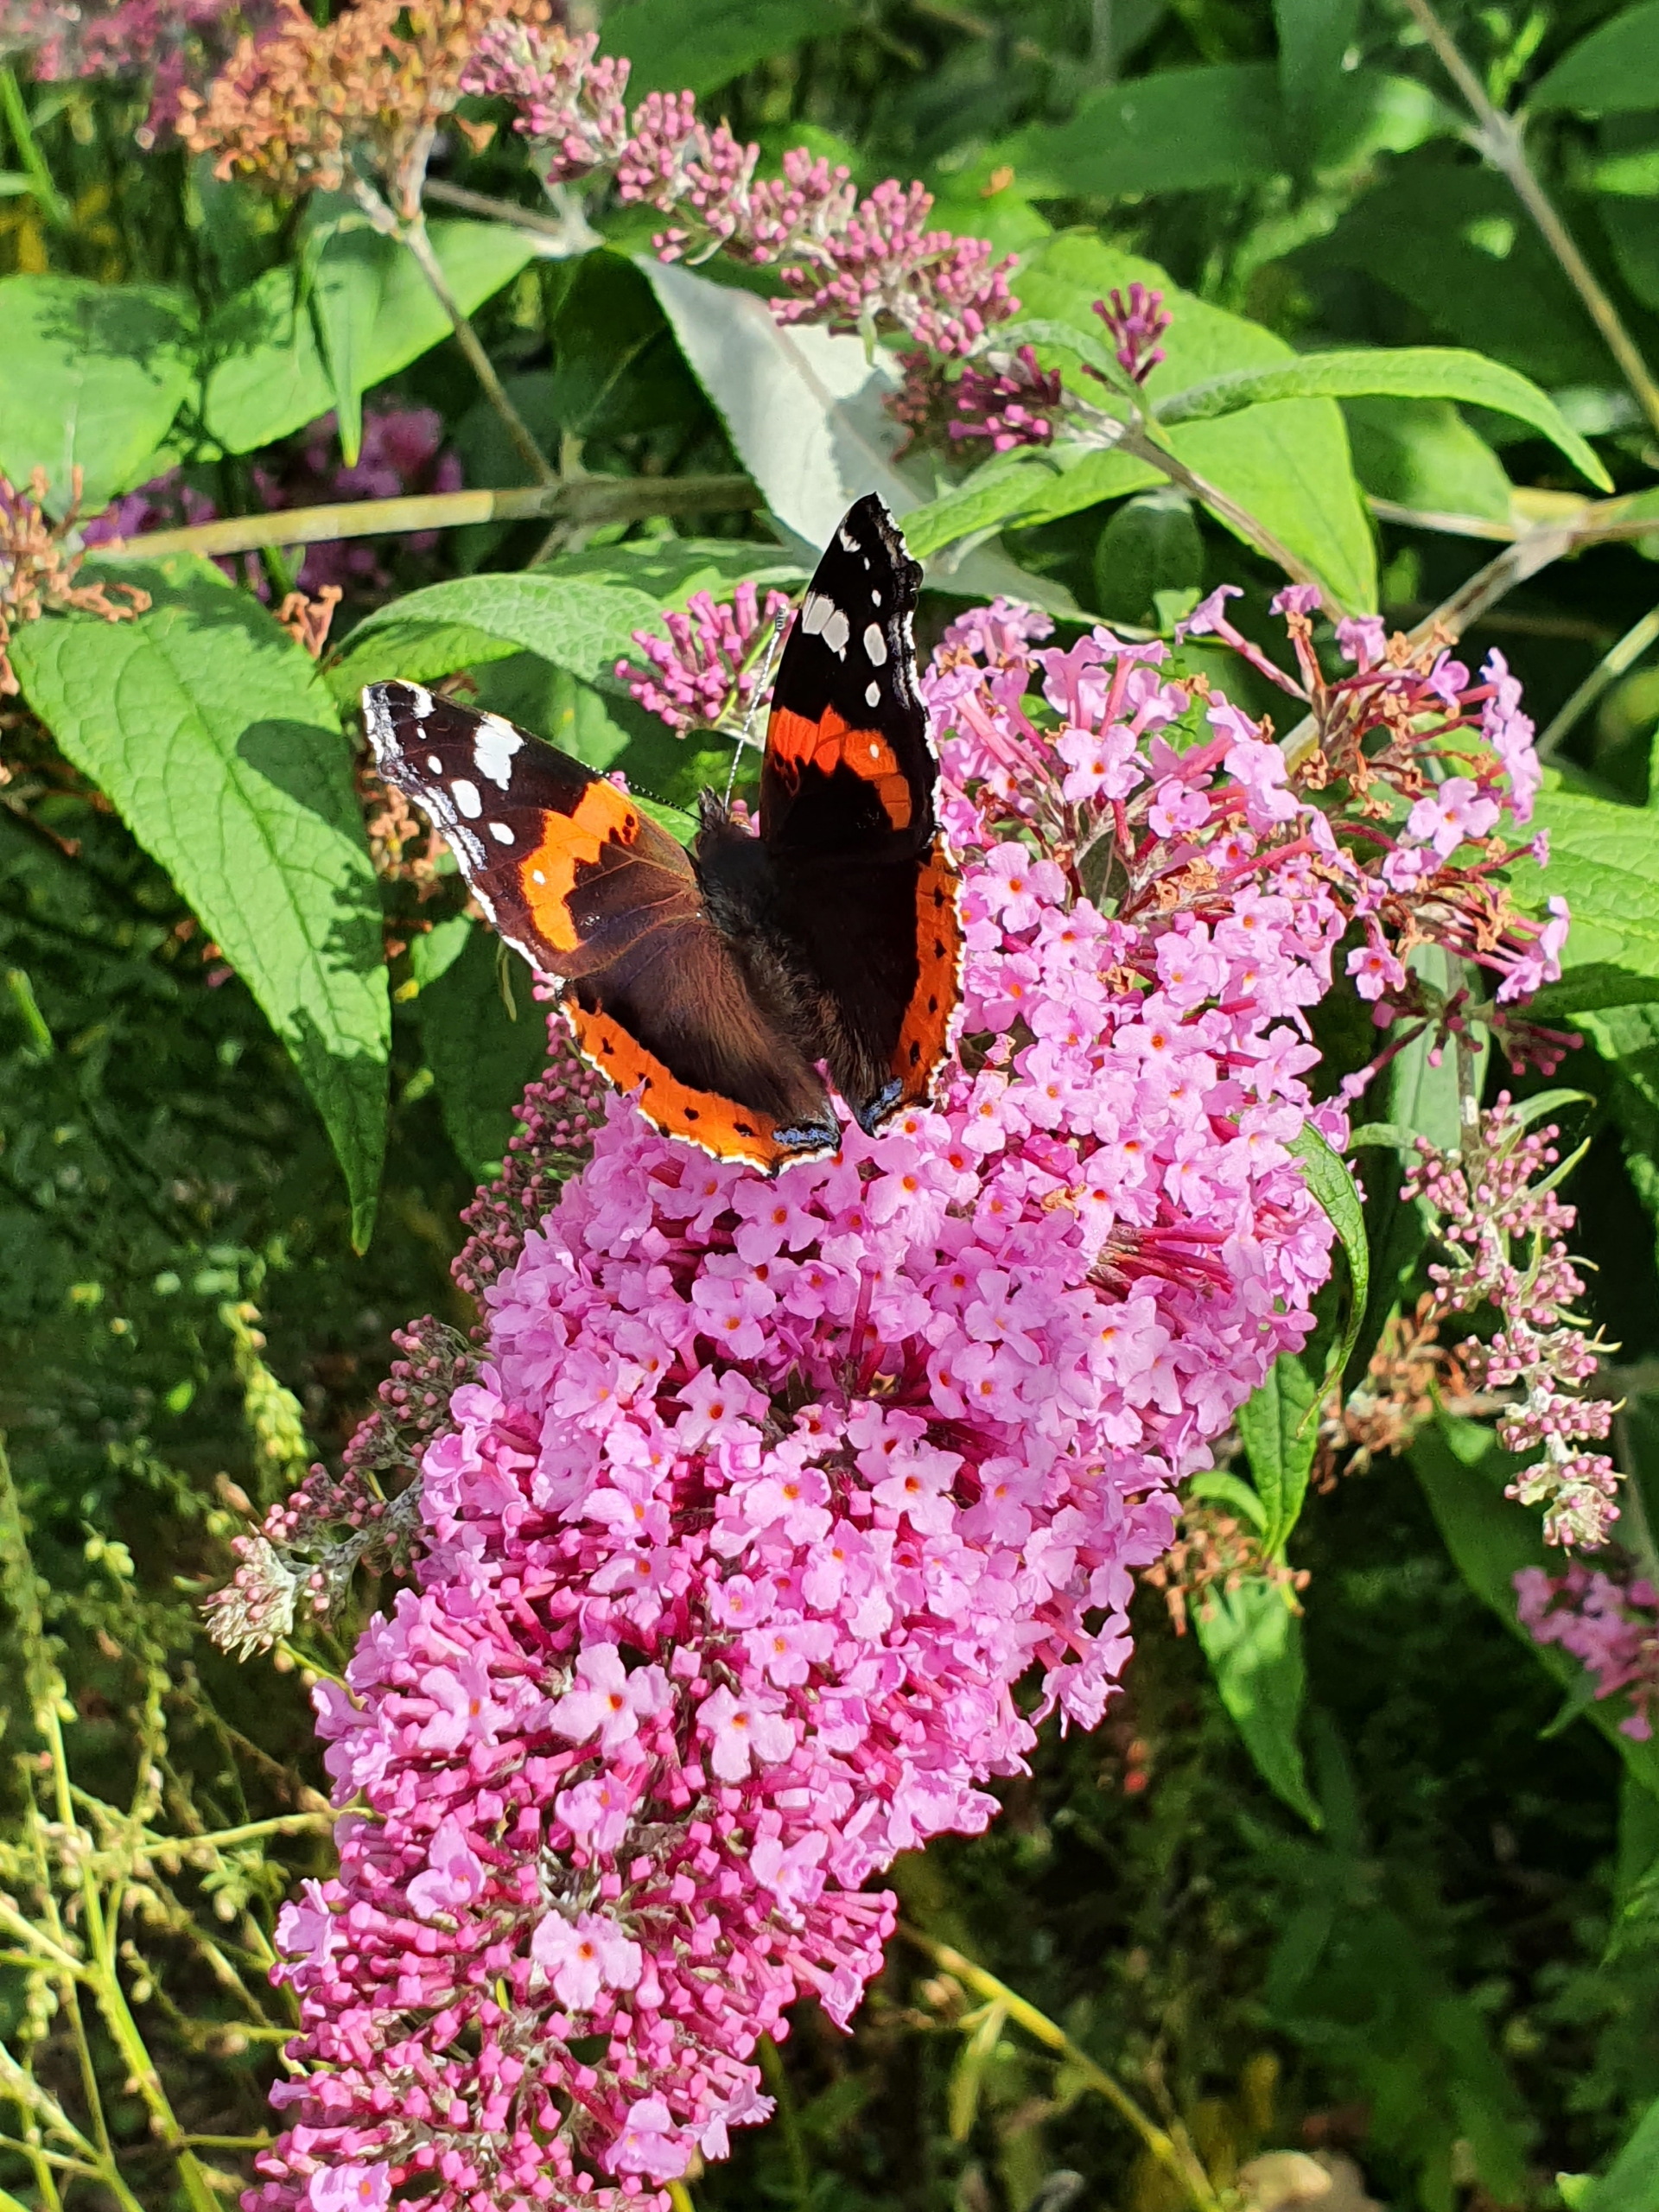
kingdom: Animalia
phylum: Arthropoda
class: Insecta
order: Lepidoptera
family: Nymphalidae
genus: Vanessa
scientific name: Vanessa atalanta
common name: Admiral
